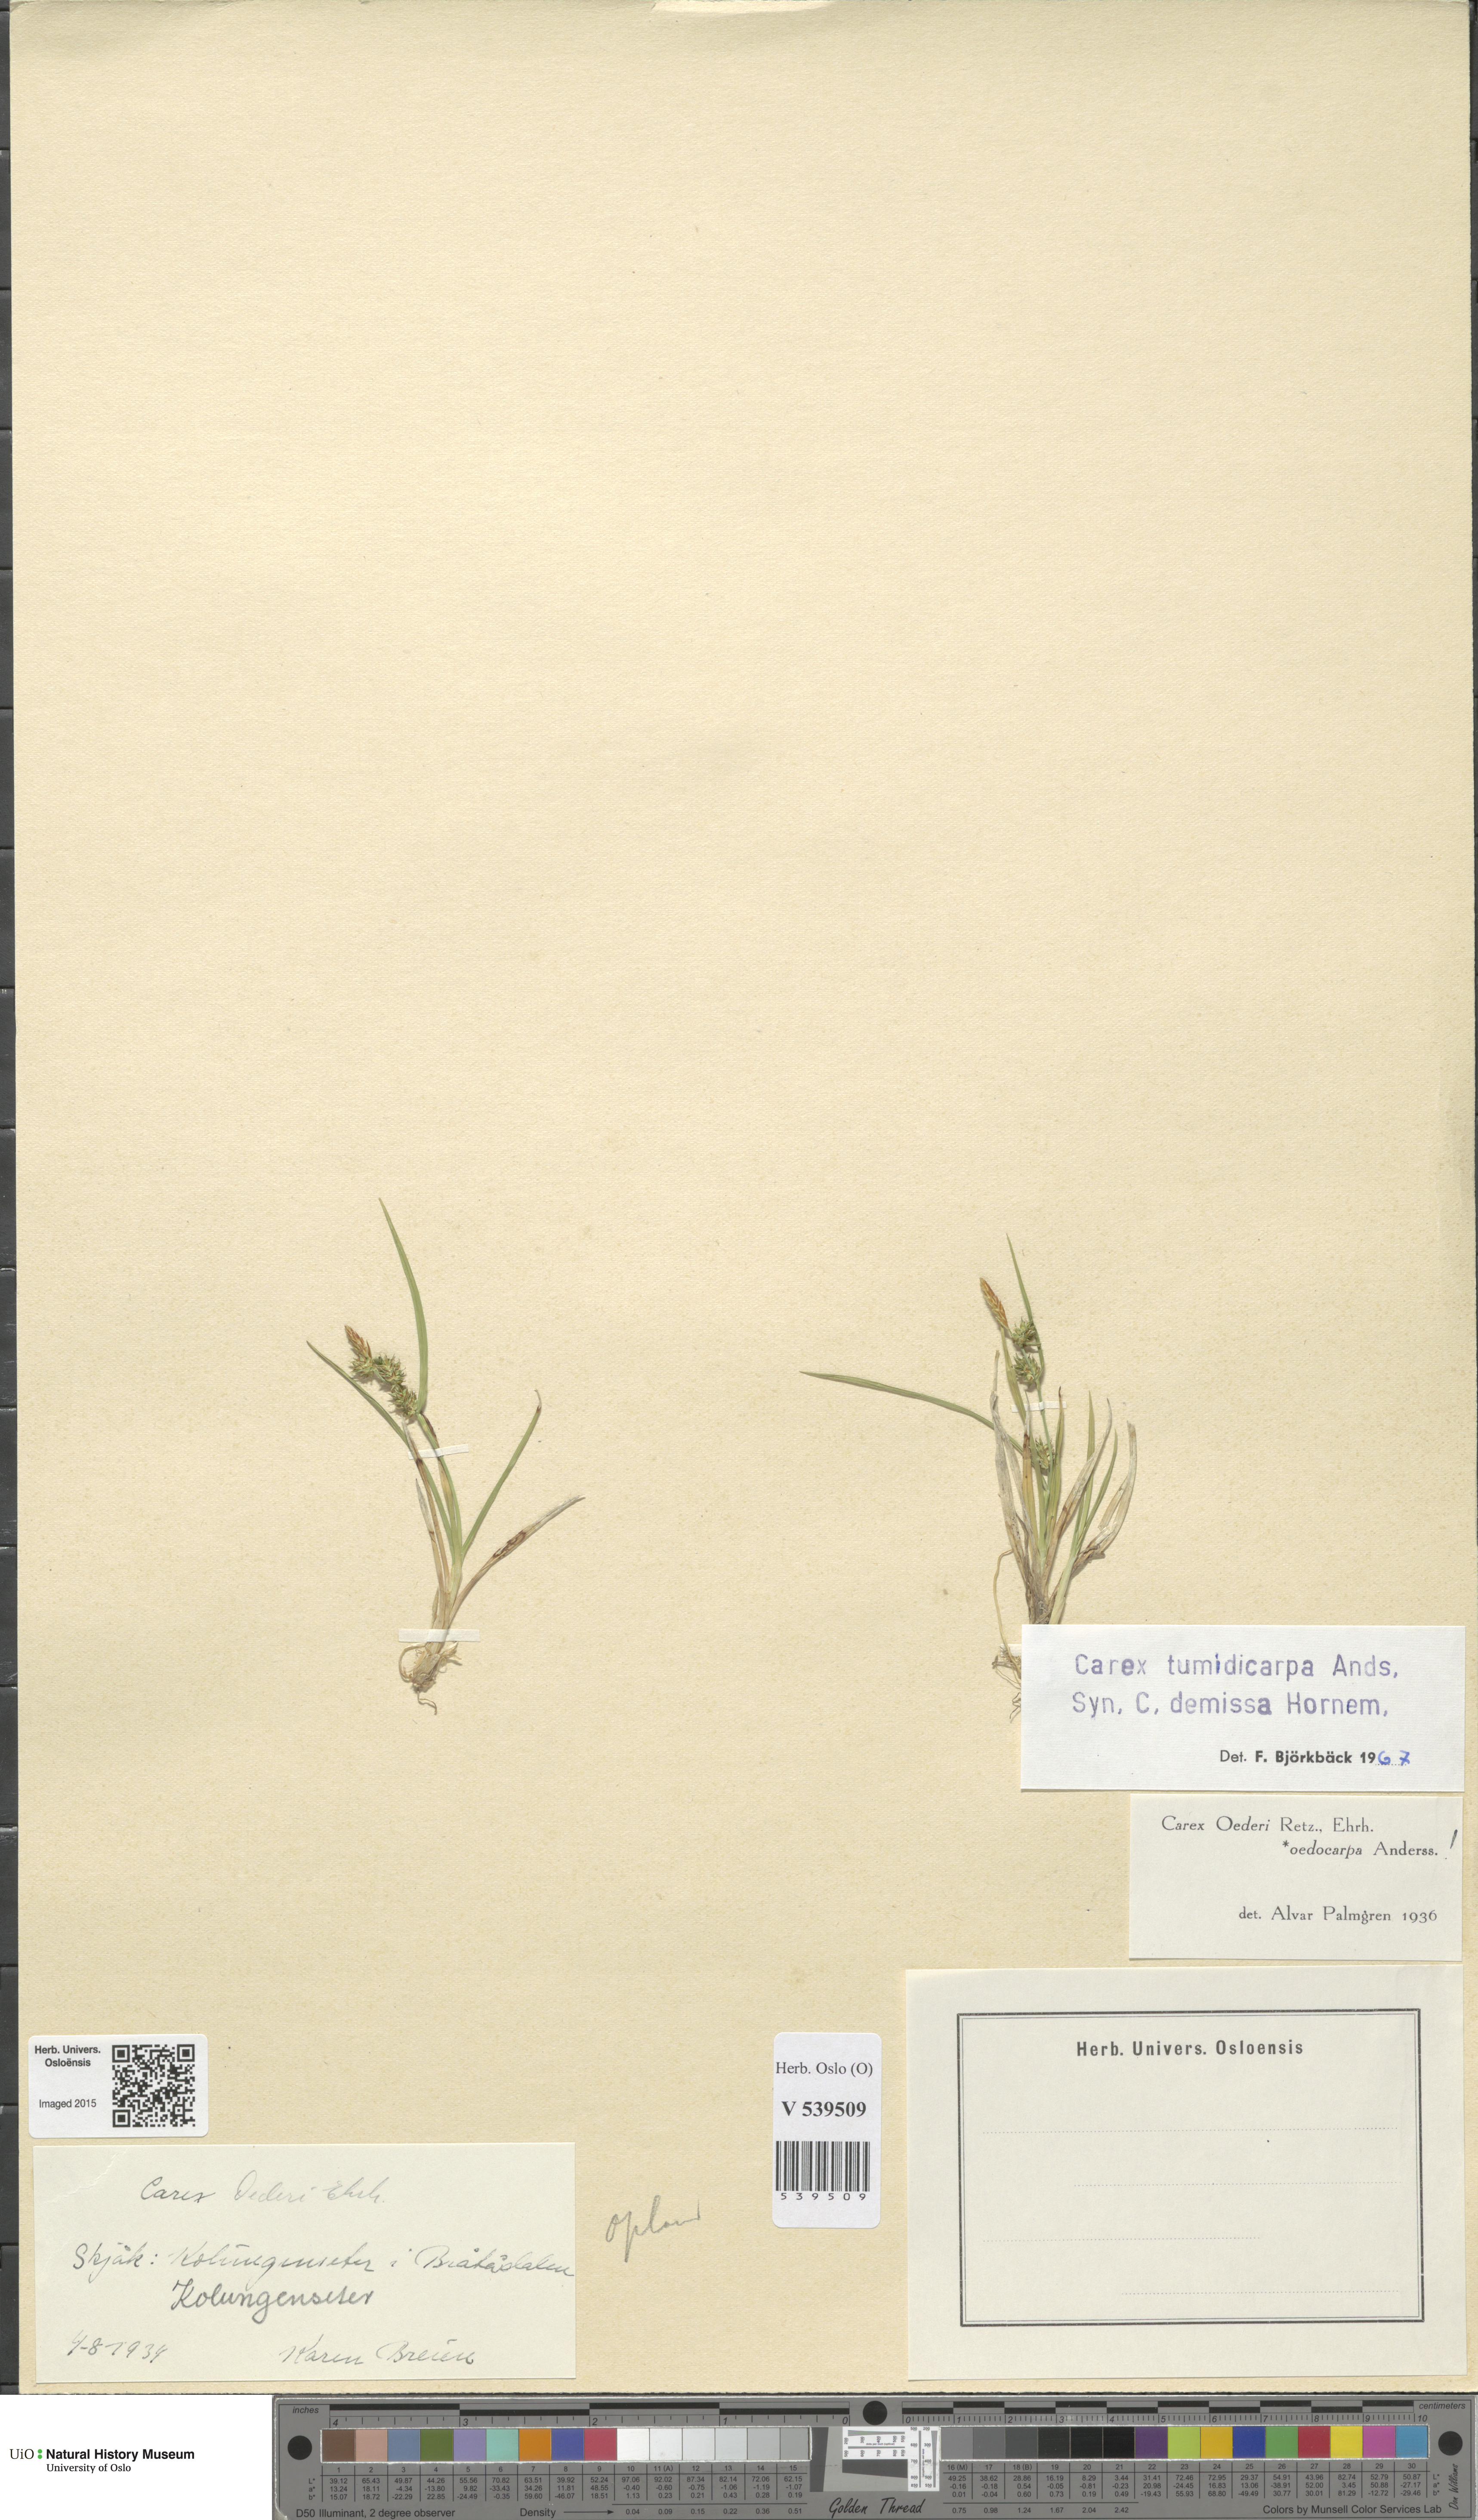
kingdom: Plantae
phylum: Tracheophyta
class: Liliopsida
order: Poales
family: Cyperaceae
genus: Carex
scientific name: Carex demissa
